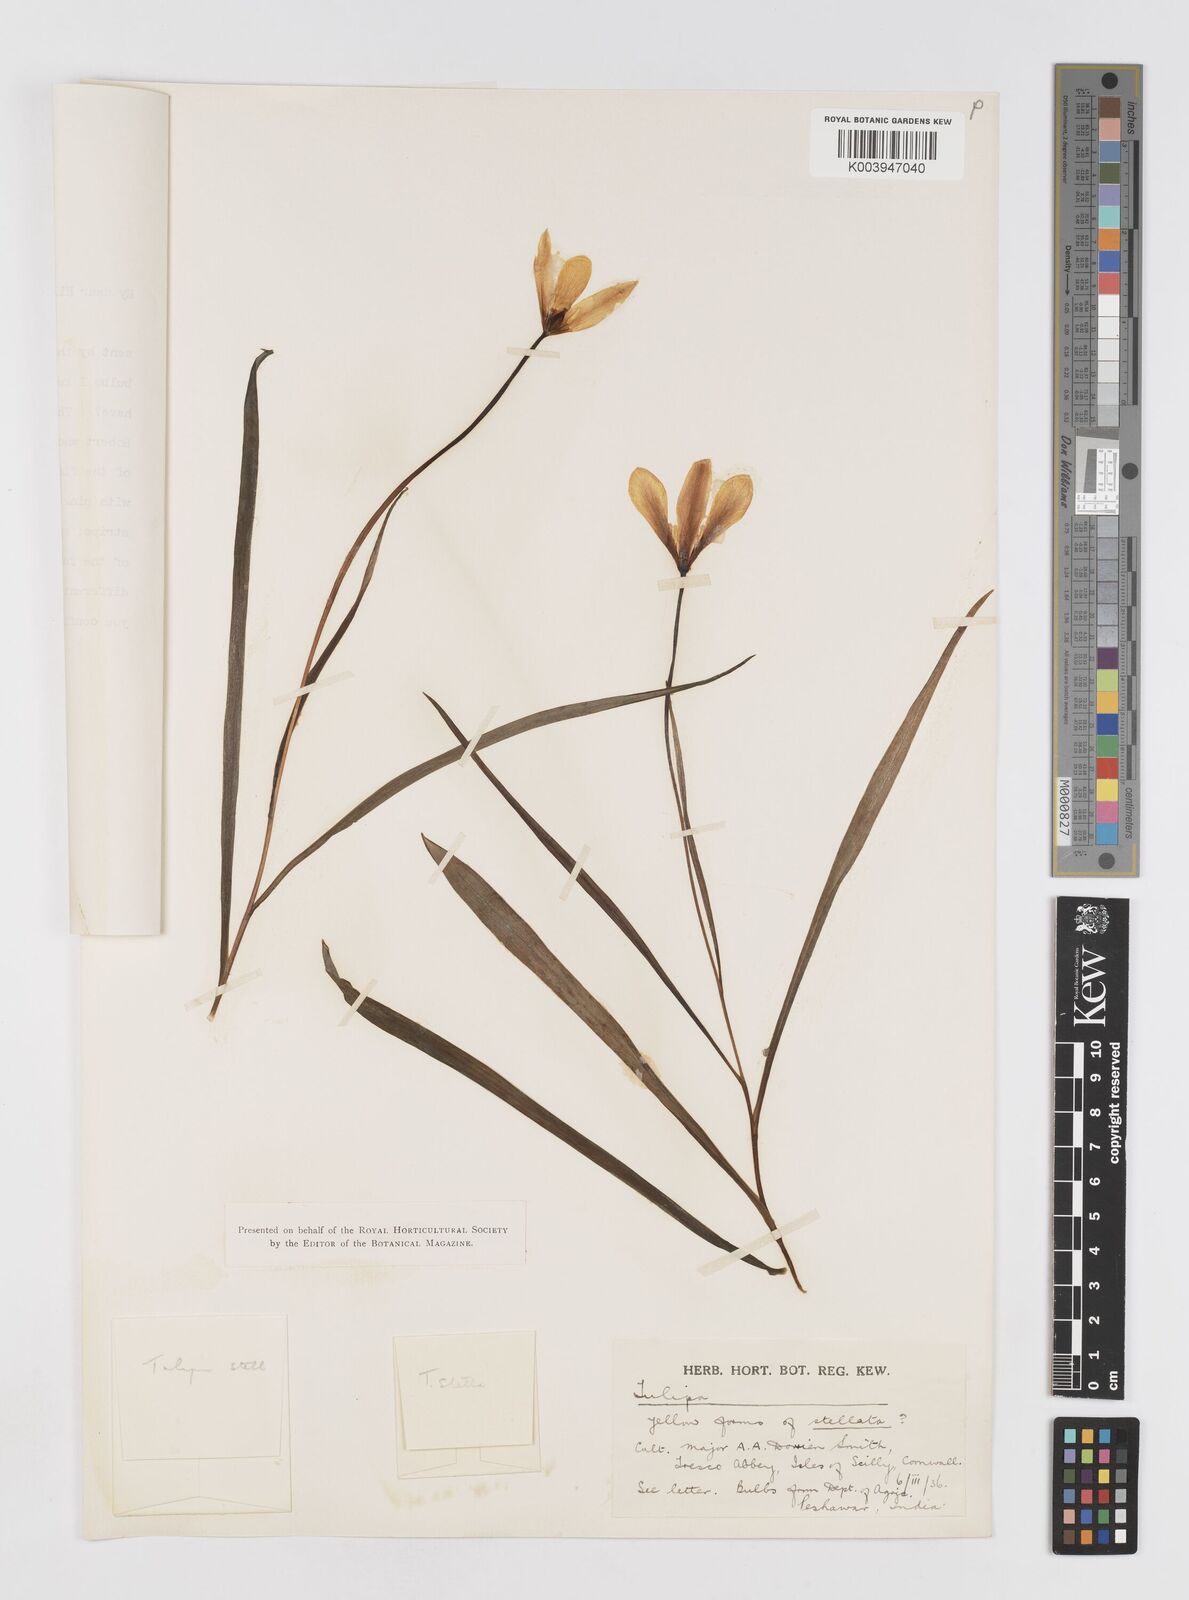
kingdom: Plantae
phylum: Tracheophyta
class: Liliopsida
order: Liliales
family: Liliaceae
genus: Tulipa
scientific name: Tulipa clusiana
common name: Lady tulip
